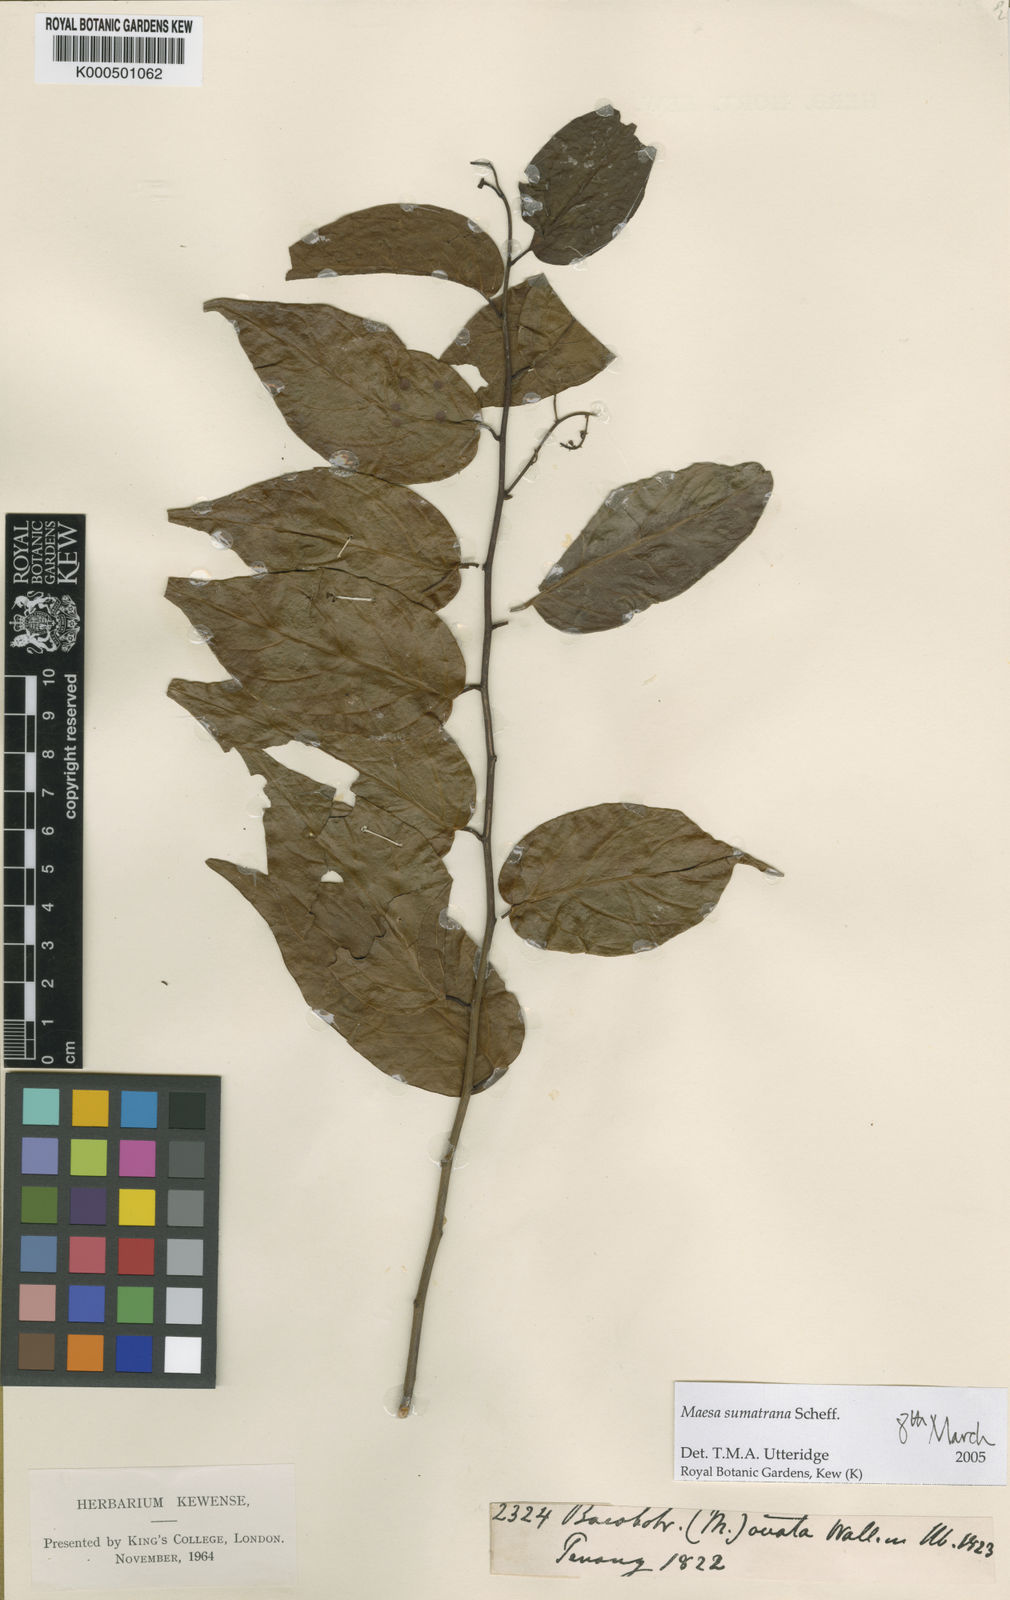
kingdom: Plantae
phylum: Tracheophyta
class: Magnoliopsida
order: Ericales
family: Primulaceae
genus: Maesa
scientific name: Maesa sumatrana
